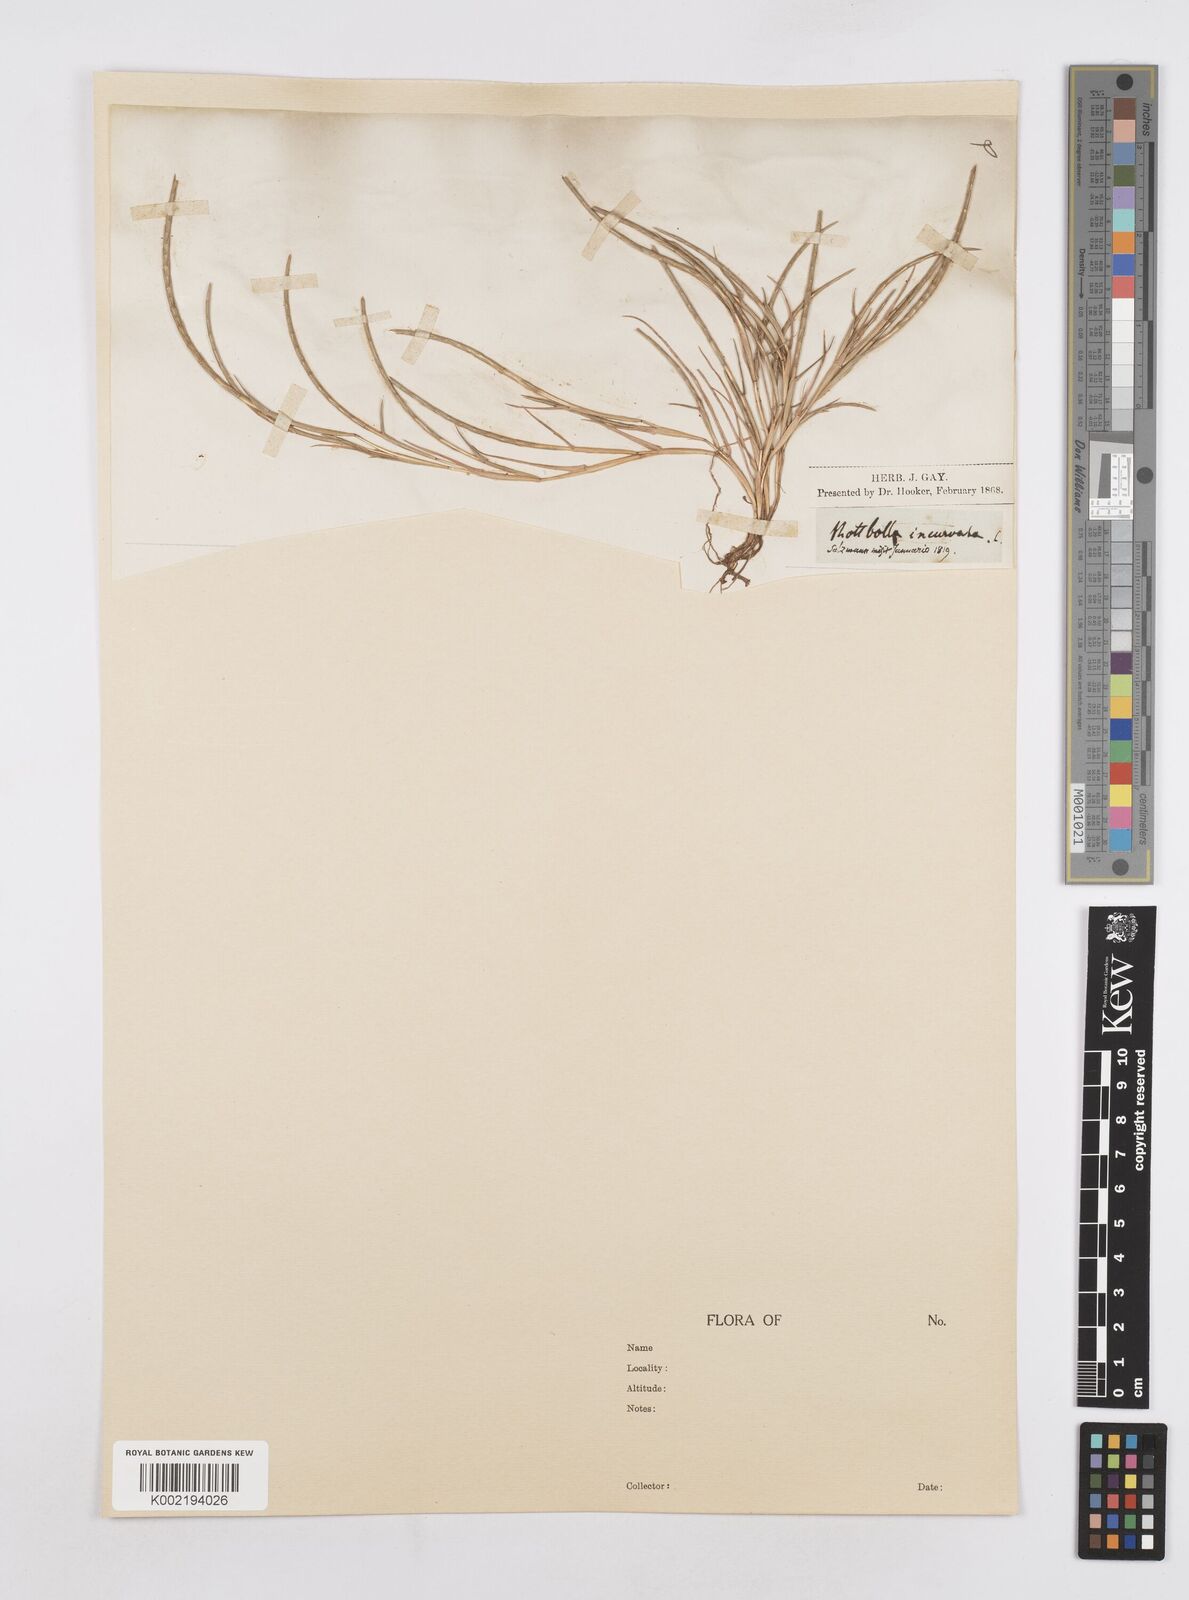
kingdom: Plantae
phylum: Tracheophyta
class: Liliopsida
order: Poales
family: Poaceae
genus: Parapholis
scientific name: Parapholis incurva
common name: Curved sicklegrass
